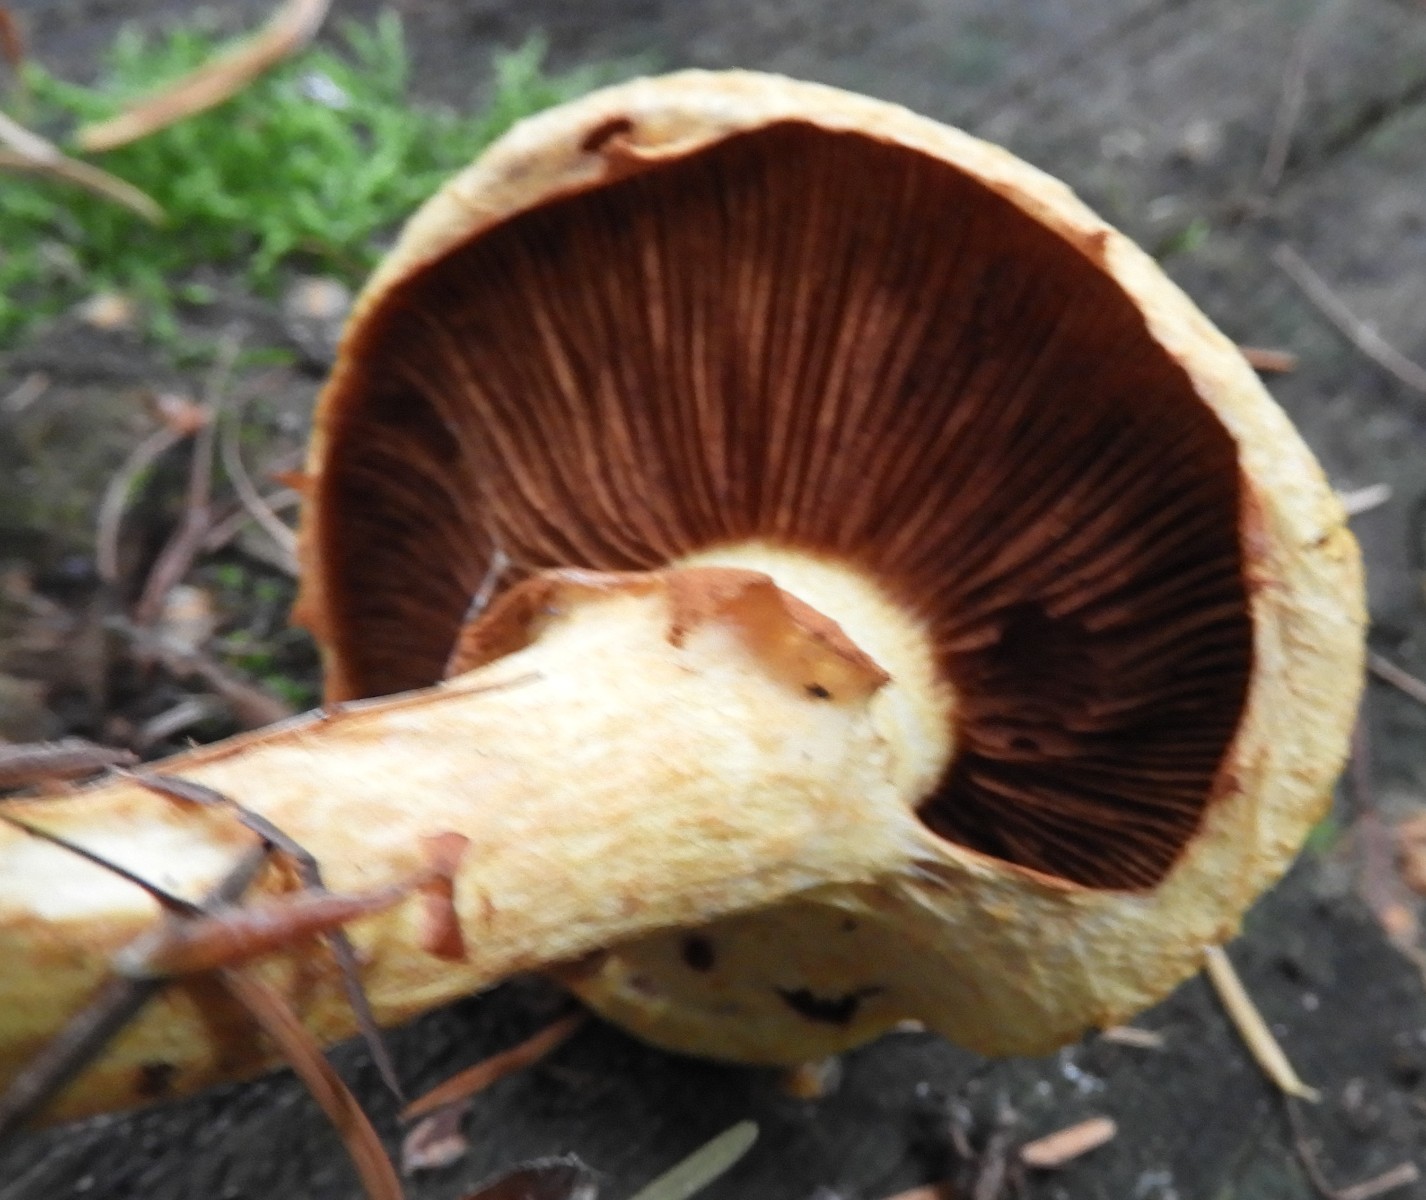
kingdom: Fungi
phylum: Basidiomycota
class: Agaricomycetes
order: Agaricales
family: Hymenogastraceae
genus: Gymnopilus
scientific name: Gymnopilus spectabilis
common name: fibret flammehat
